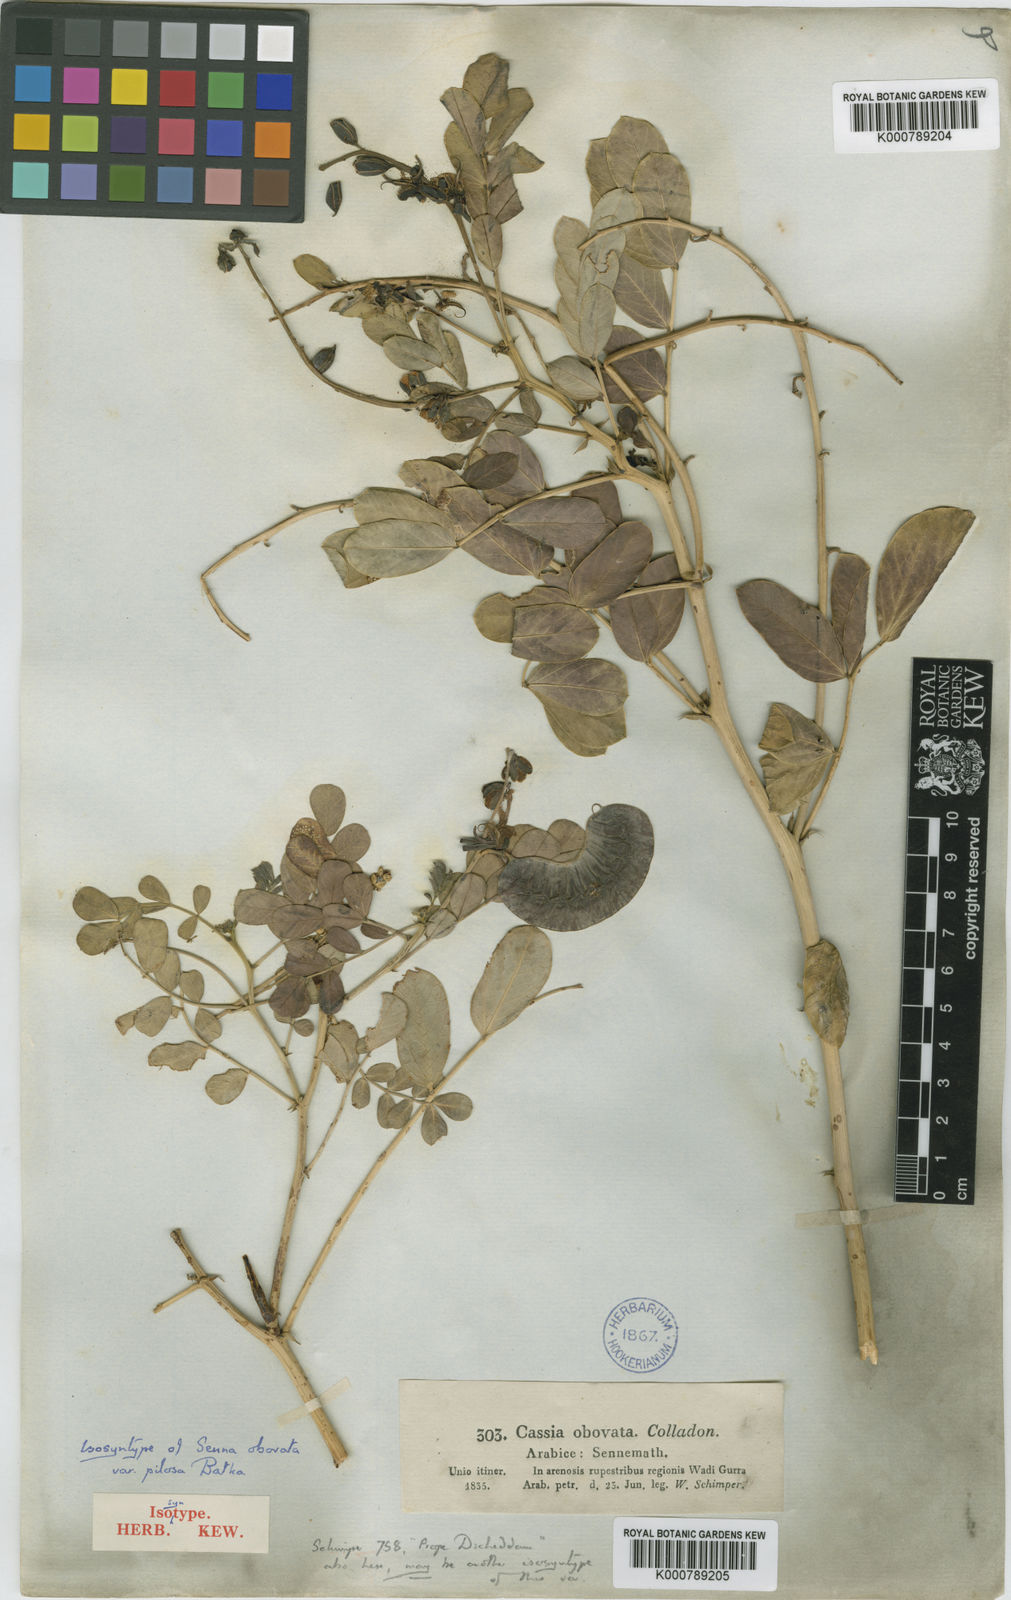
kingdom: Plantae
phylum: Tracheophyta
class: Magnoliopsida
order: Fabales
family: Fabaceae
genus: Senna
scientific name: Senna italica
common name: Port royal senna
